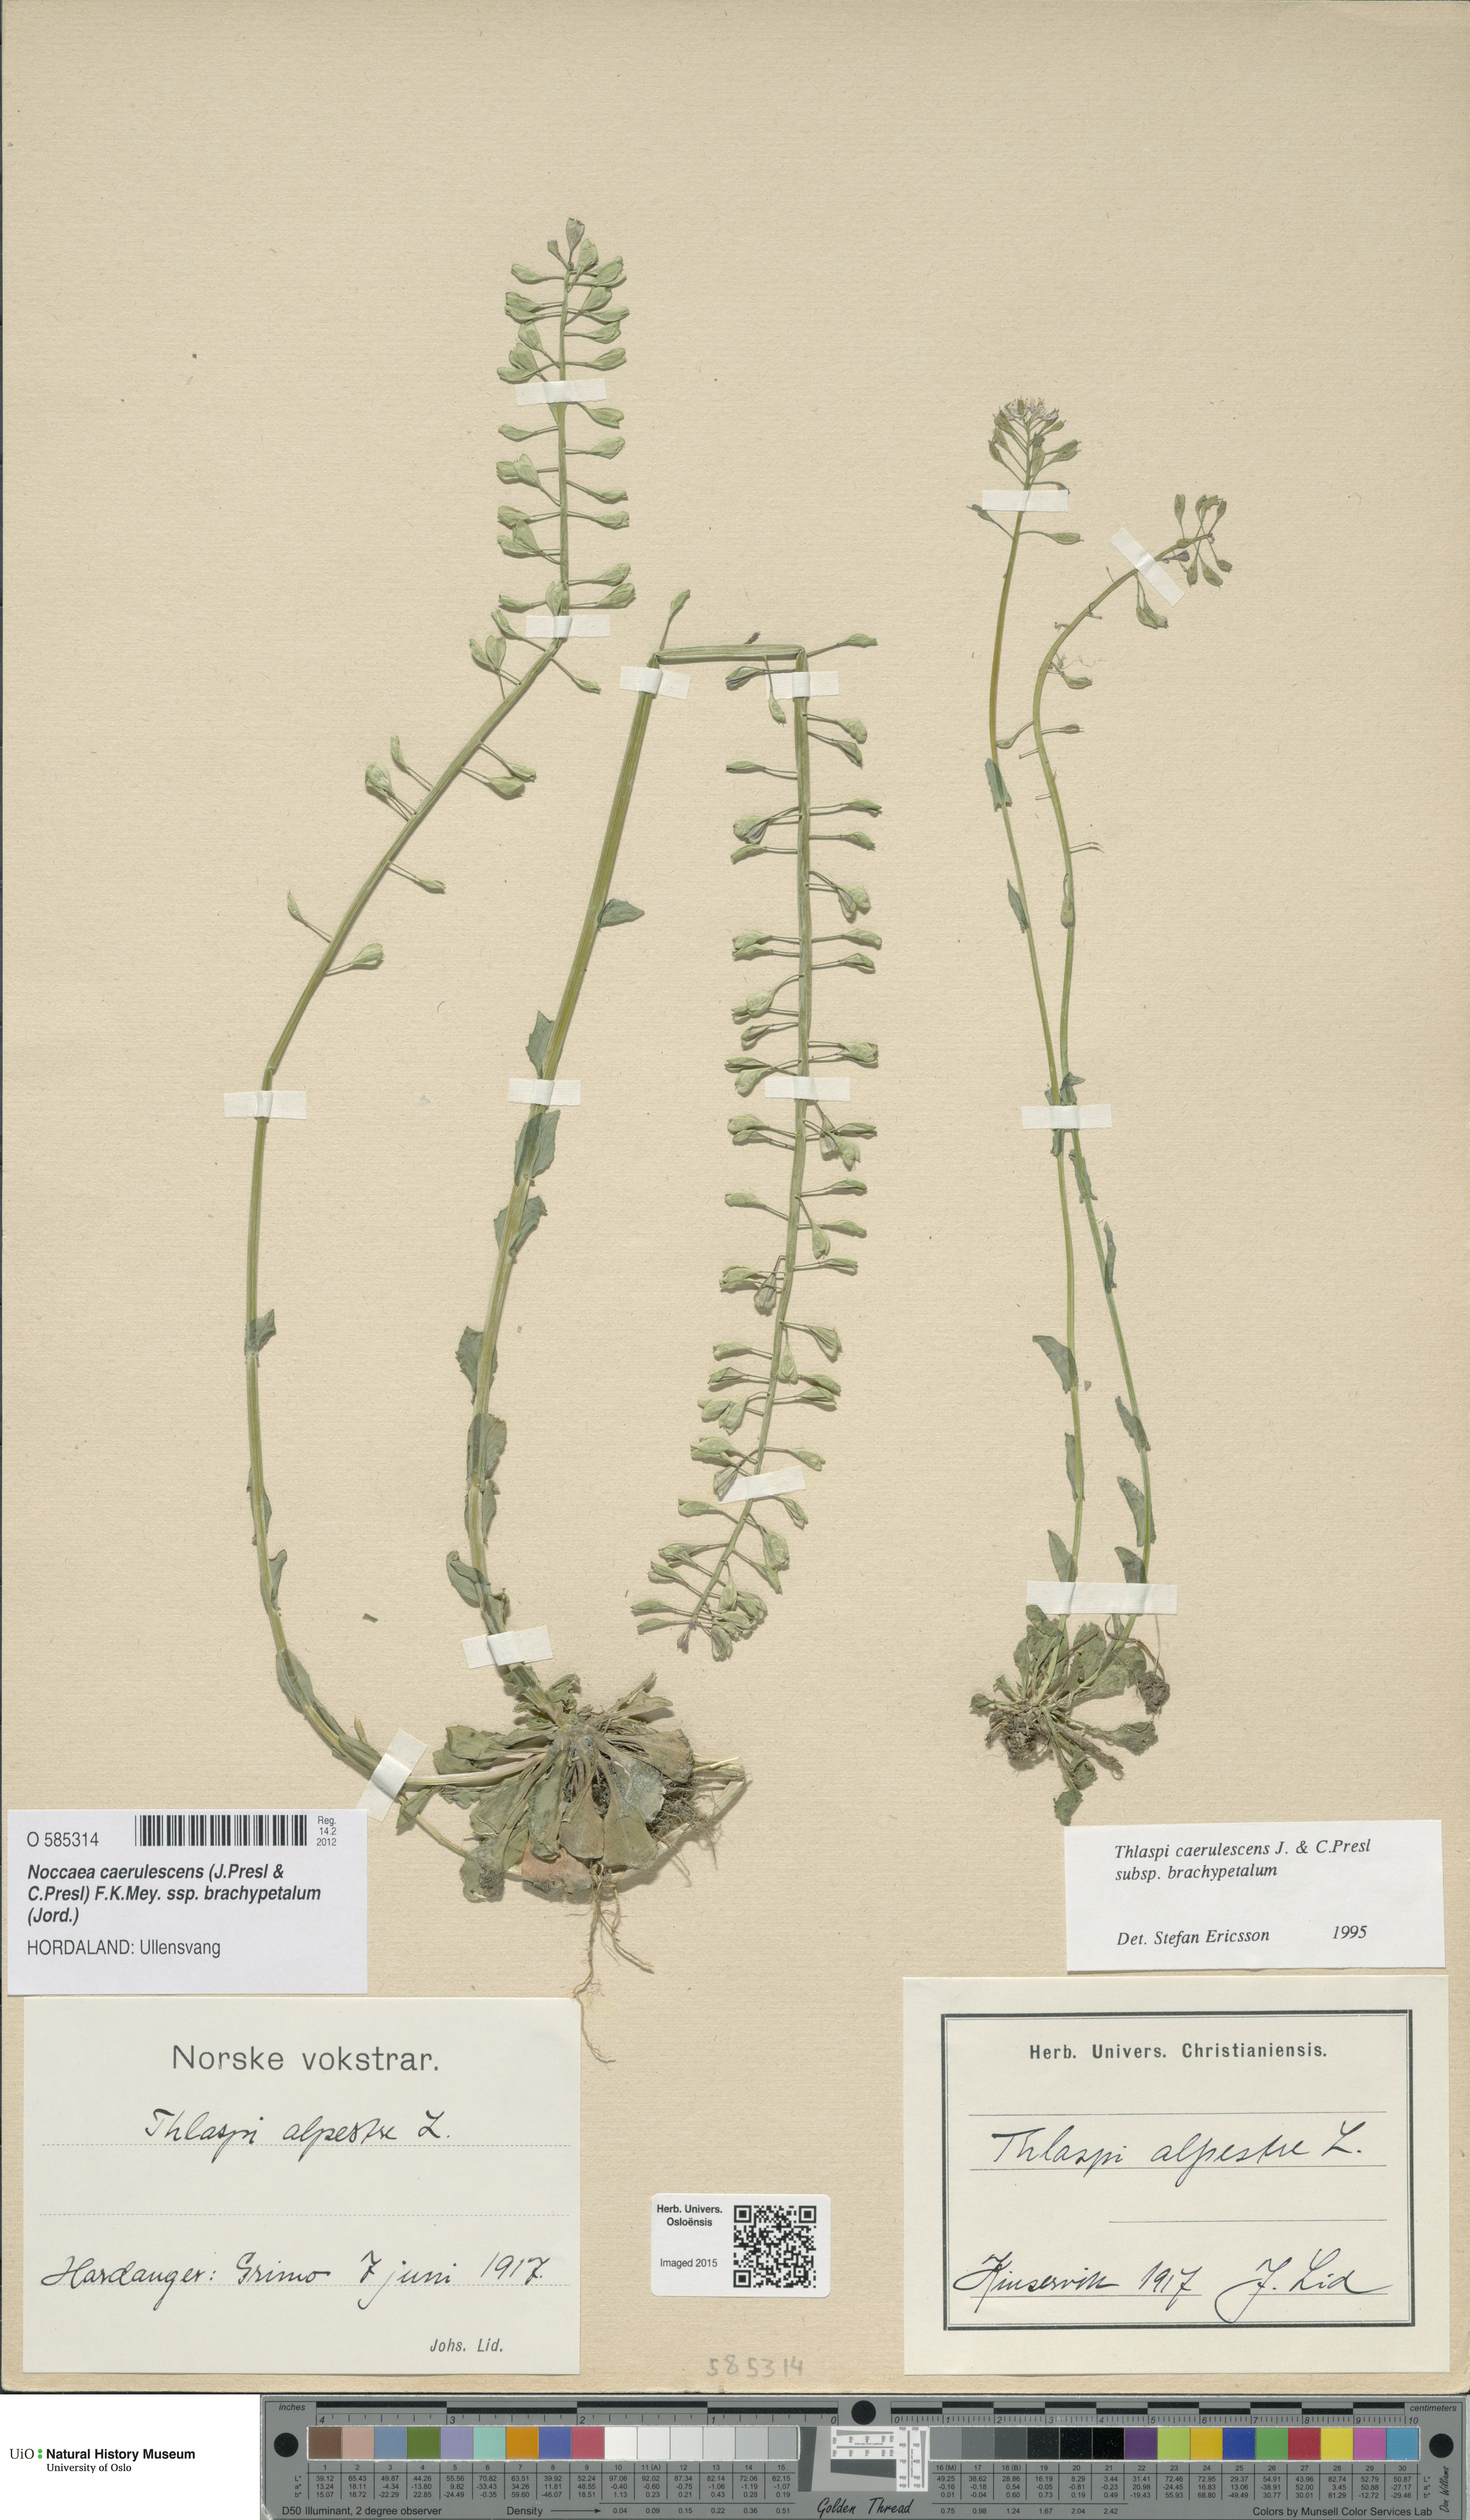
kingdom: Plantae
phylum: Tracheophyta
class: Magnoliopsida
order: Brassicales
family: Brassicaceae
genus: Noccaea
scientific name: Noccaea brachypetala
